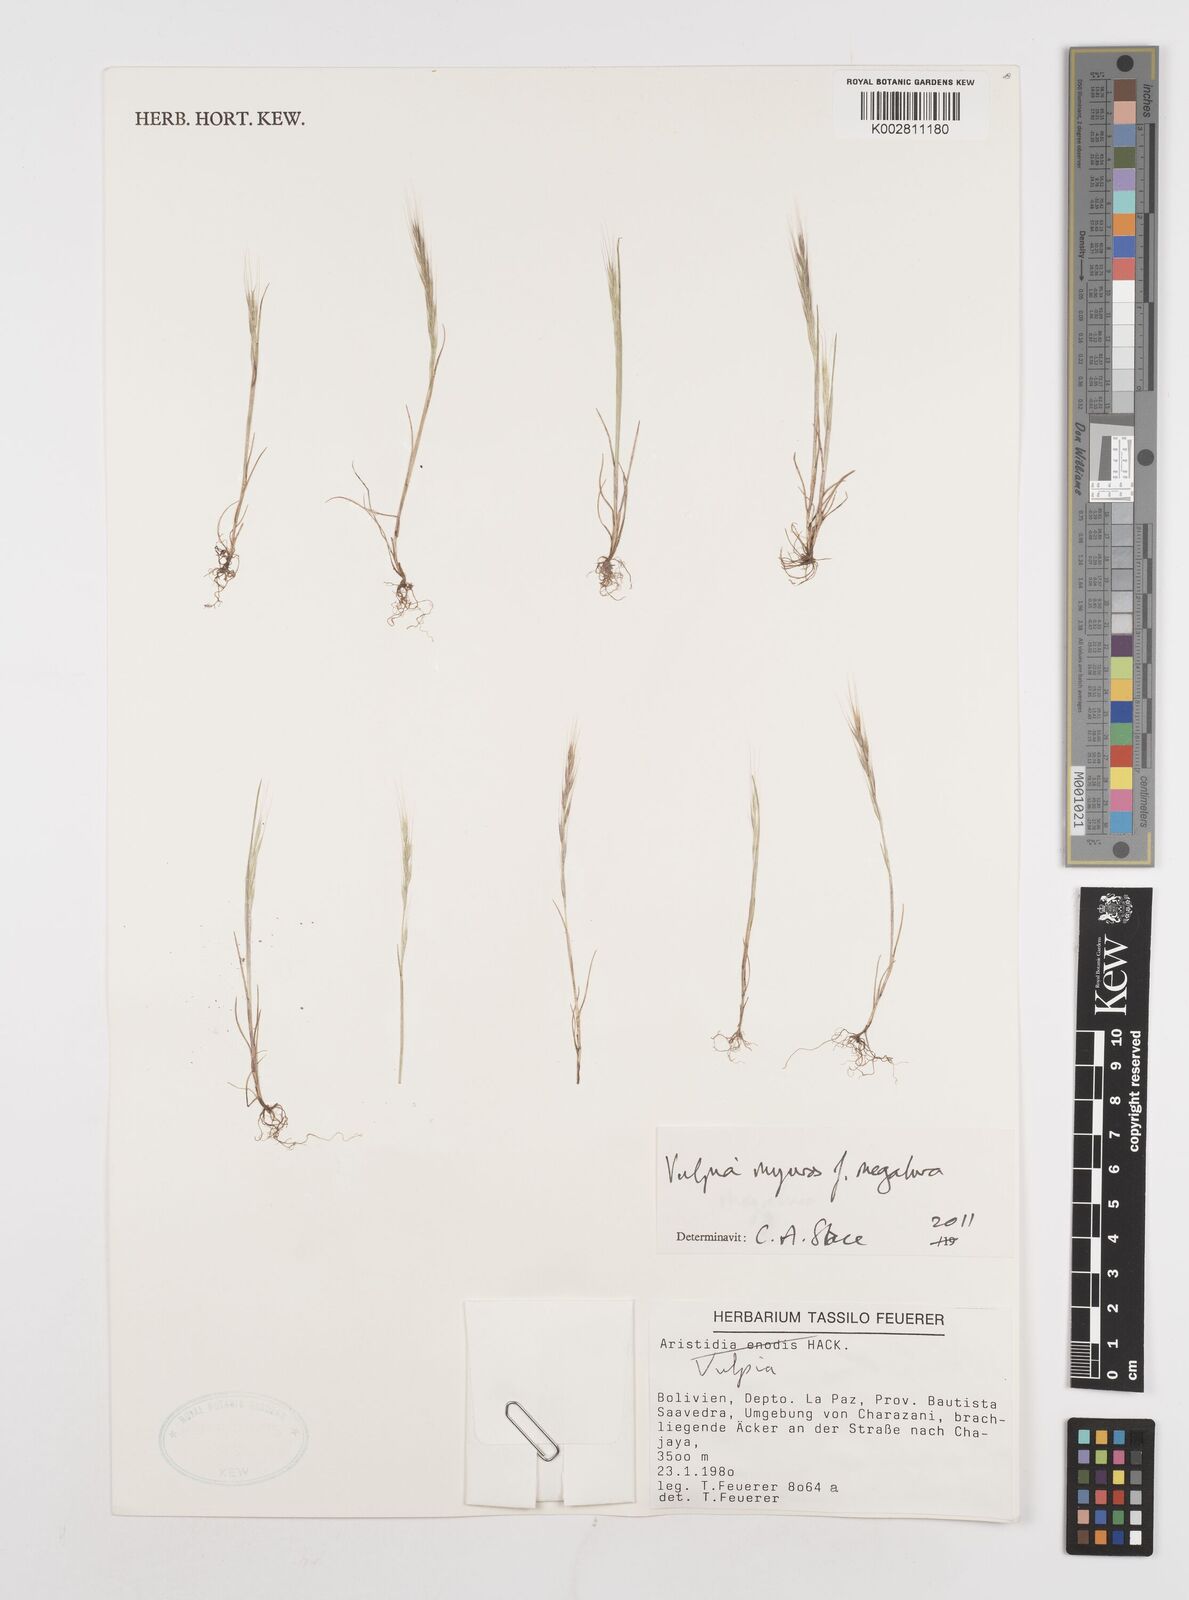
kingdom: Plantae
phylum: Tracheophyta
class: Liliopsida
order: Poales
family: Poaceae
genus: Festuca
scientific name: Festuca myuros
